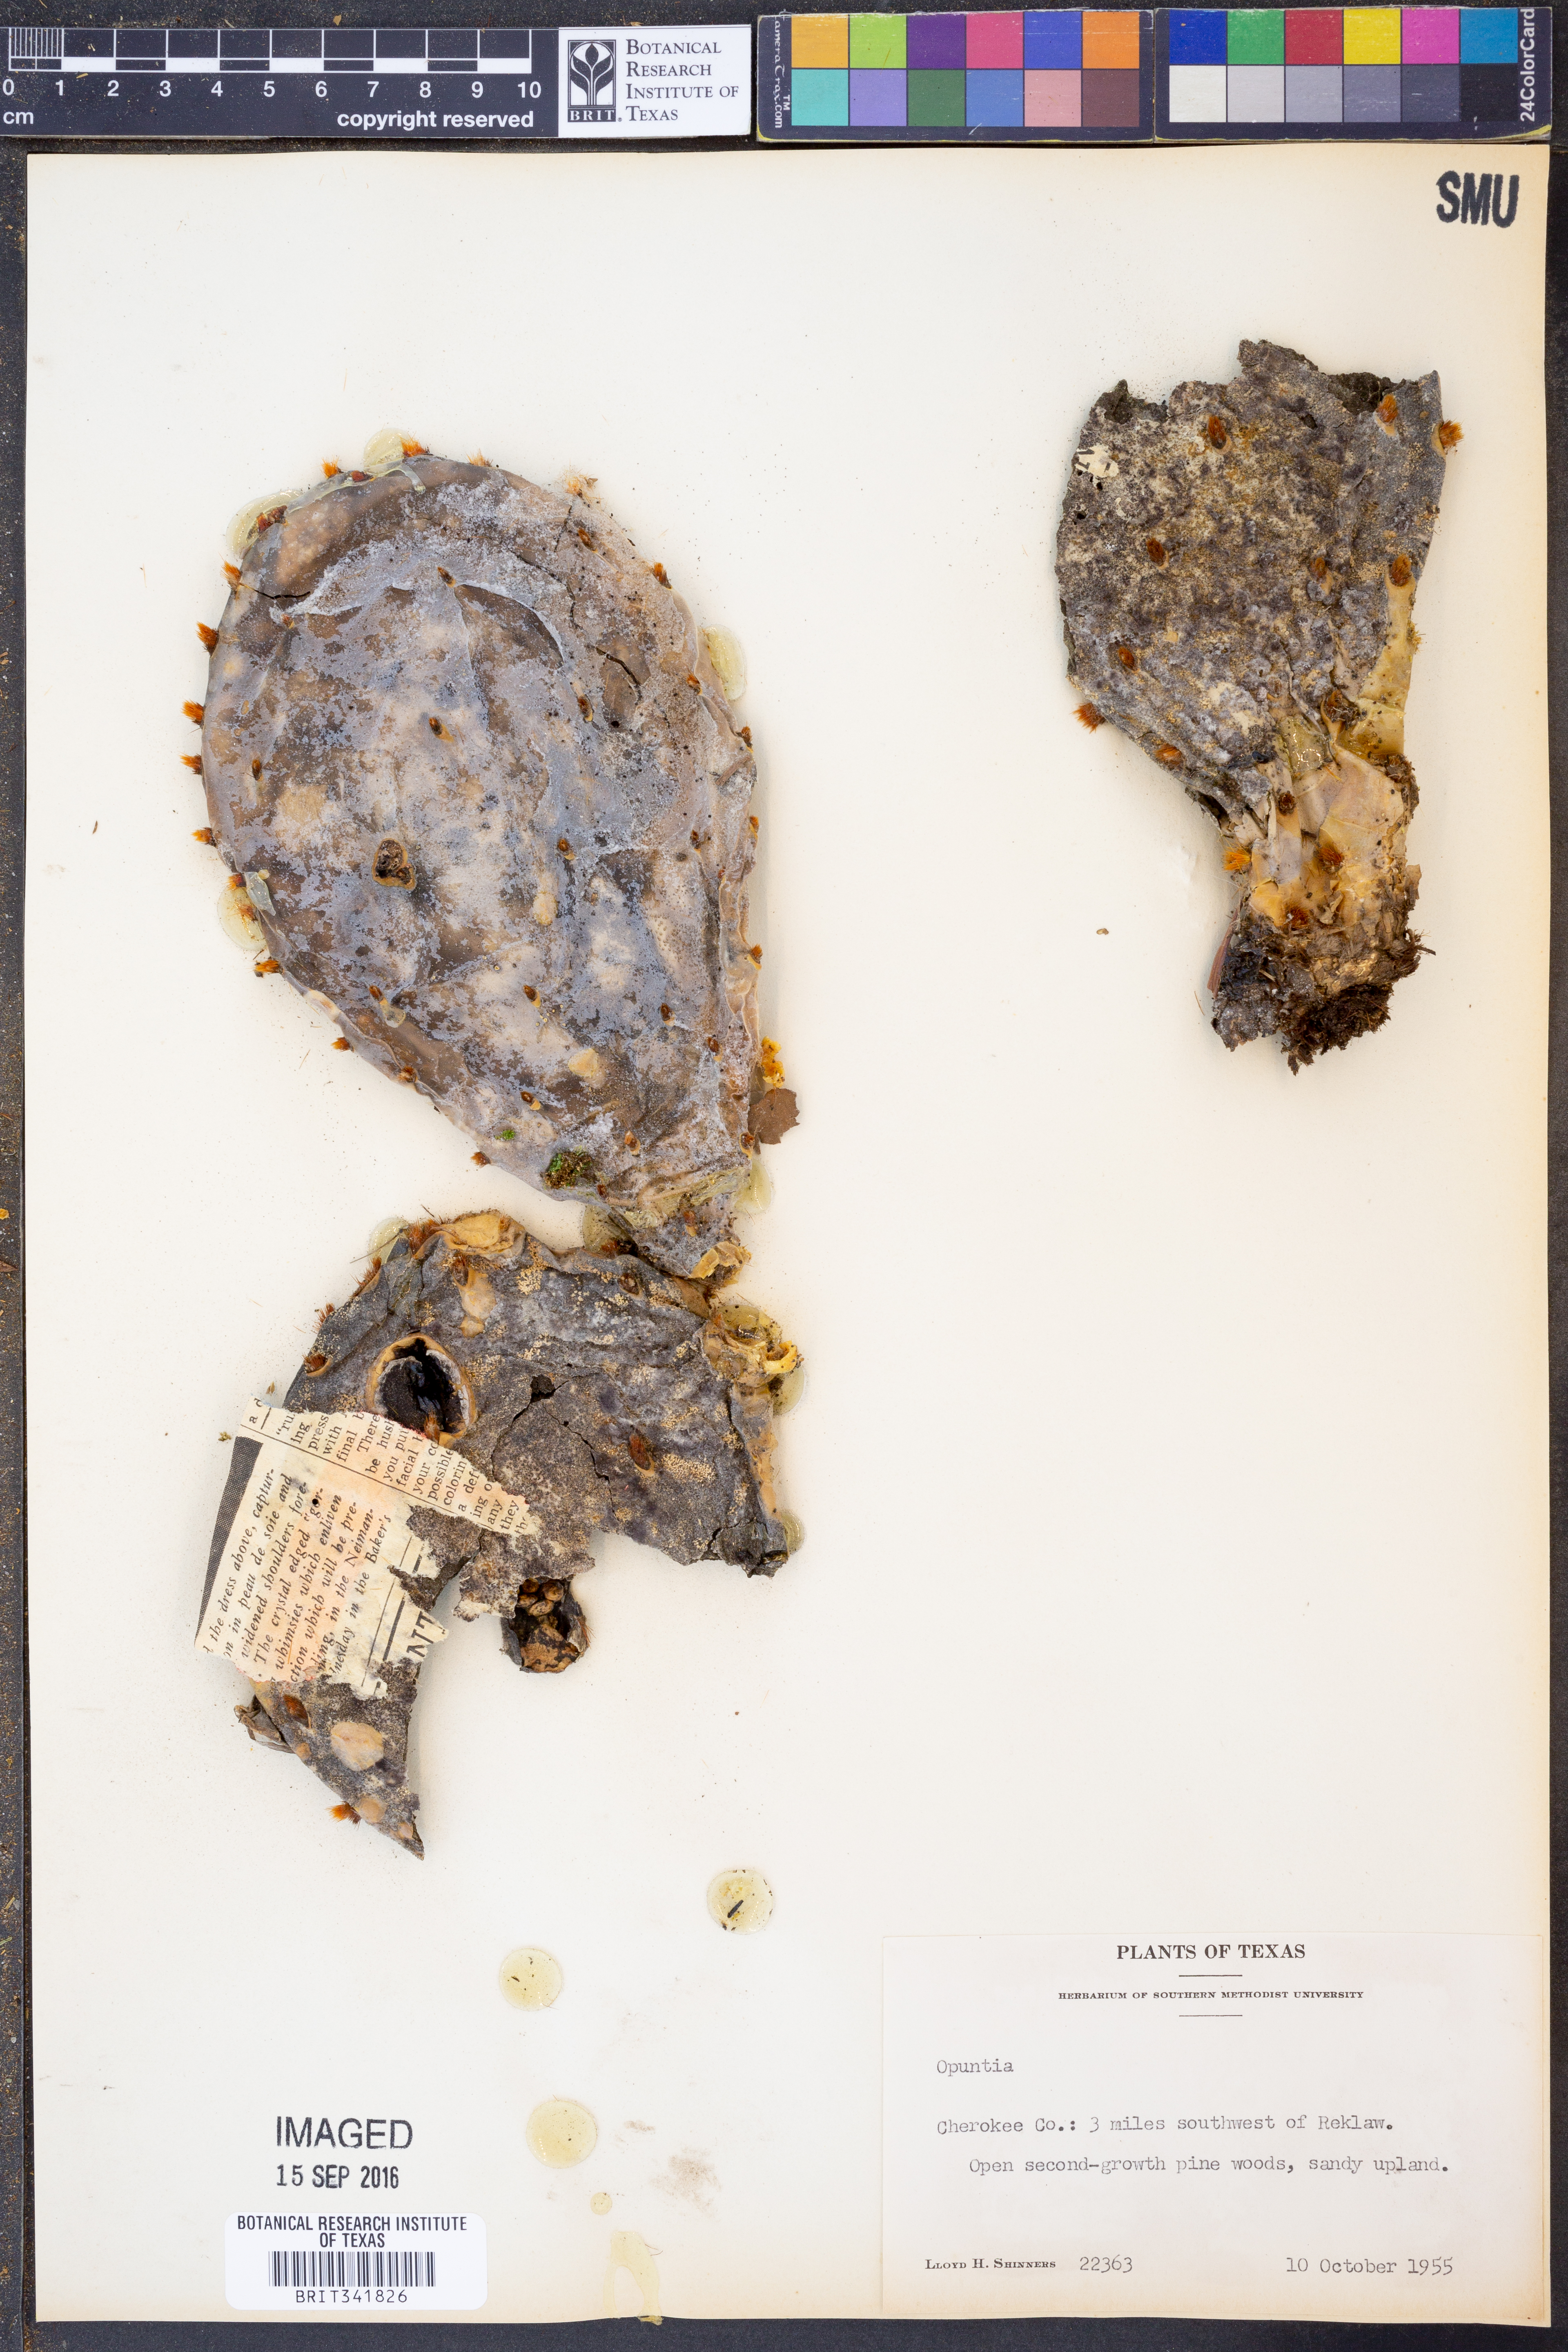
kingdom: Plantae
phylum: Tracheophyta
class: Magnoliopsida
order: Caryophyllales
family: Cactaceae
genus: Opuntia
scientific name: Opuntia
